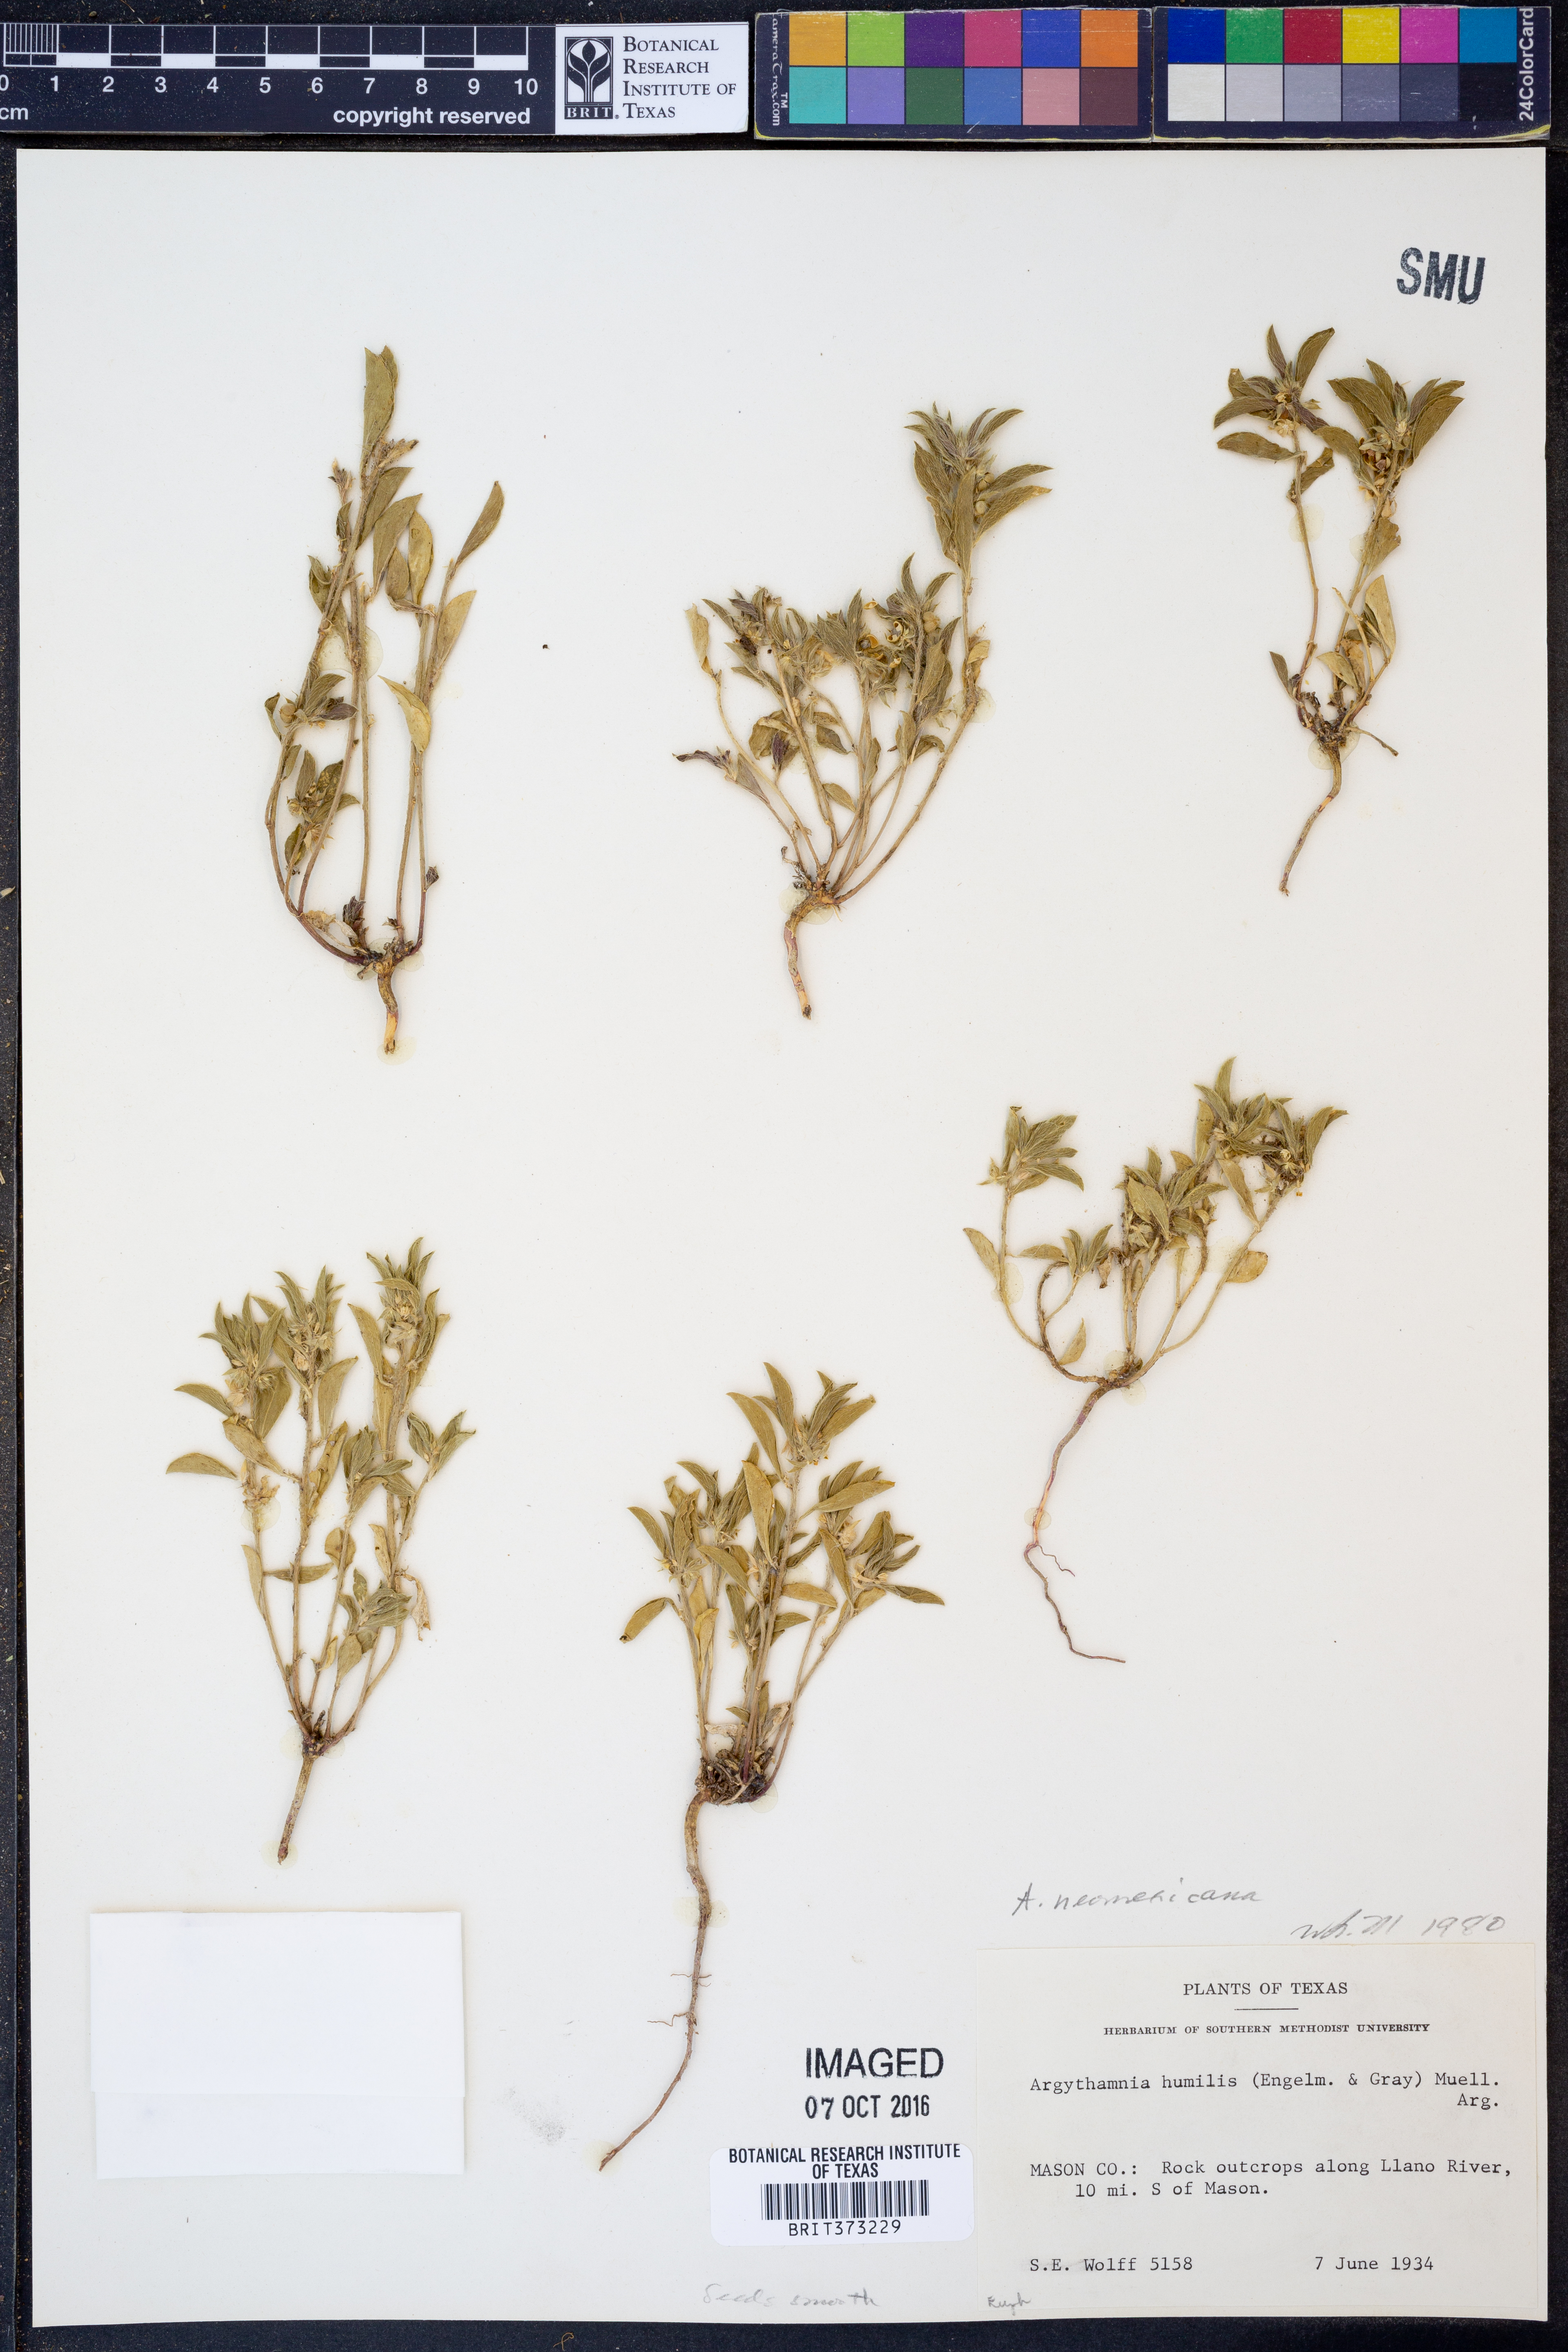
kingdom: Plantae
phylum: Tracheophyta
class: Magnoliopsida
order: Malpighiales
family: Euphorbiaceae
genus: Ditaxis
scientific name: Ditaxis serrata
